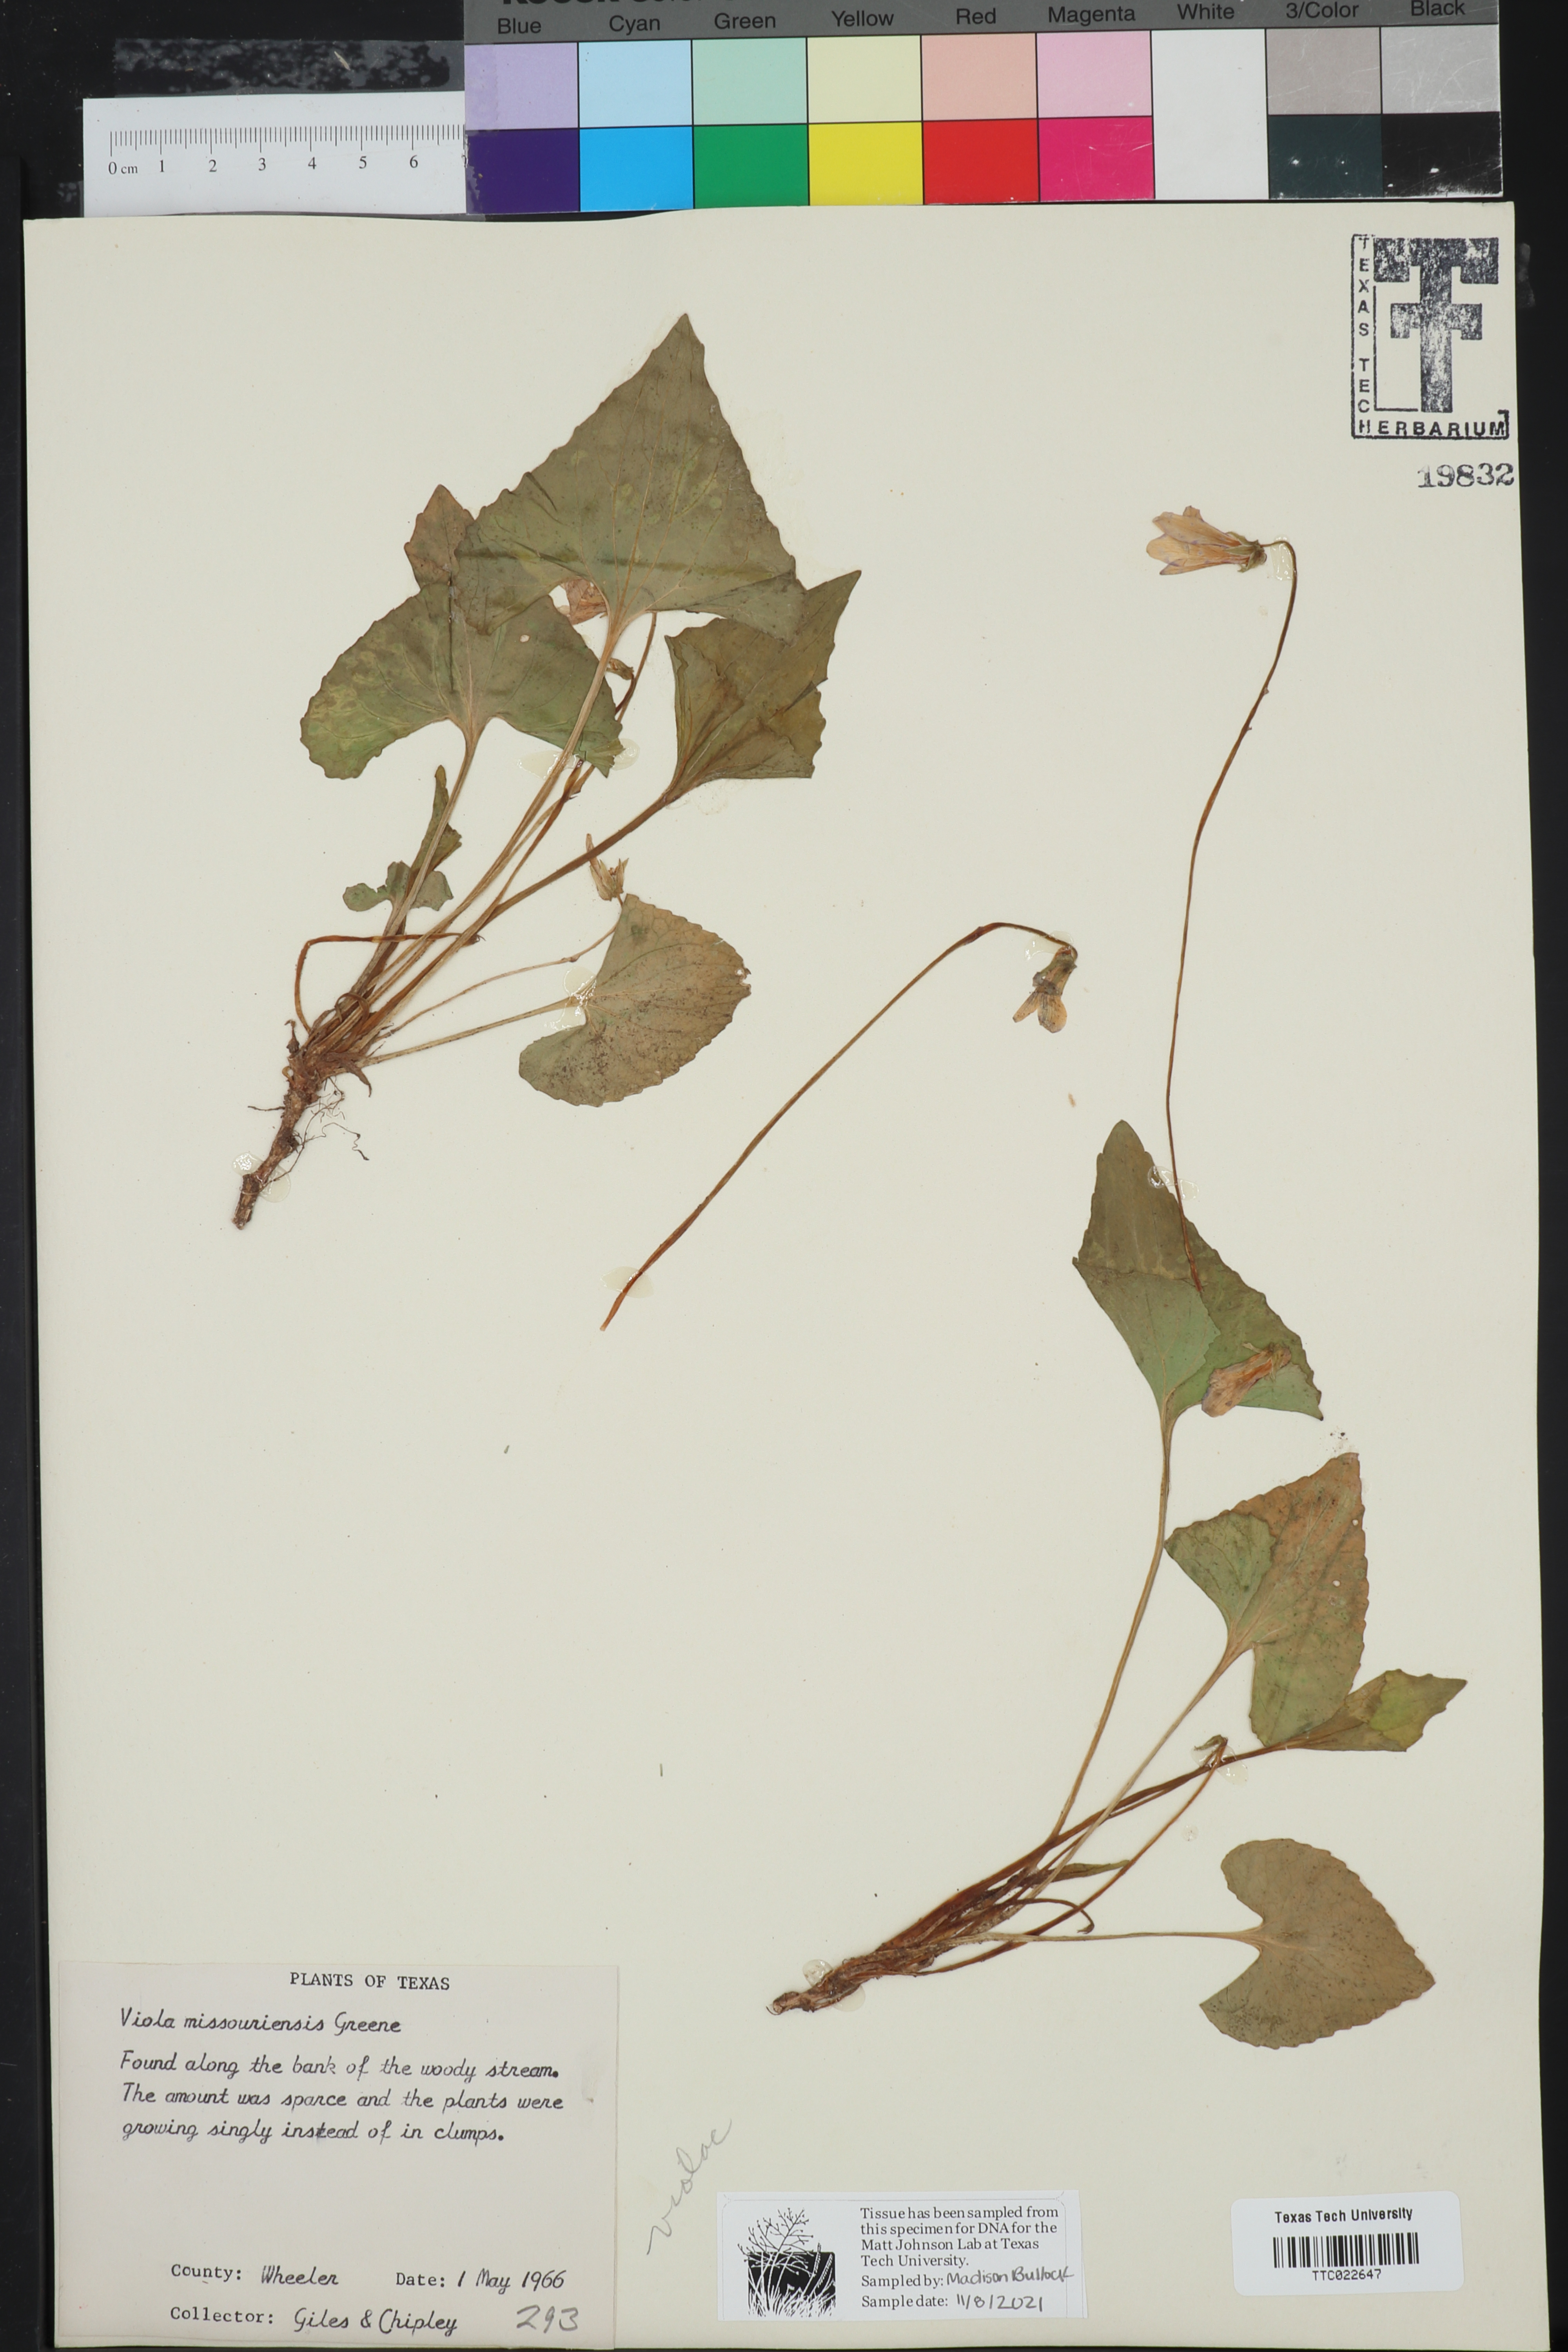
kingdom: Plantae
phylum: Tracheophyta
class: Magnoliopsida
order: Malpighiales
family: Violaceae
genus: Viola
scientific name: Viola missouriensis
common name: Missouri violet
